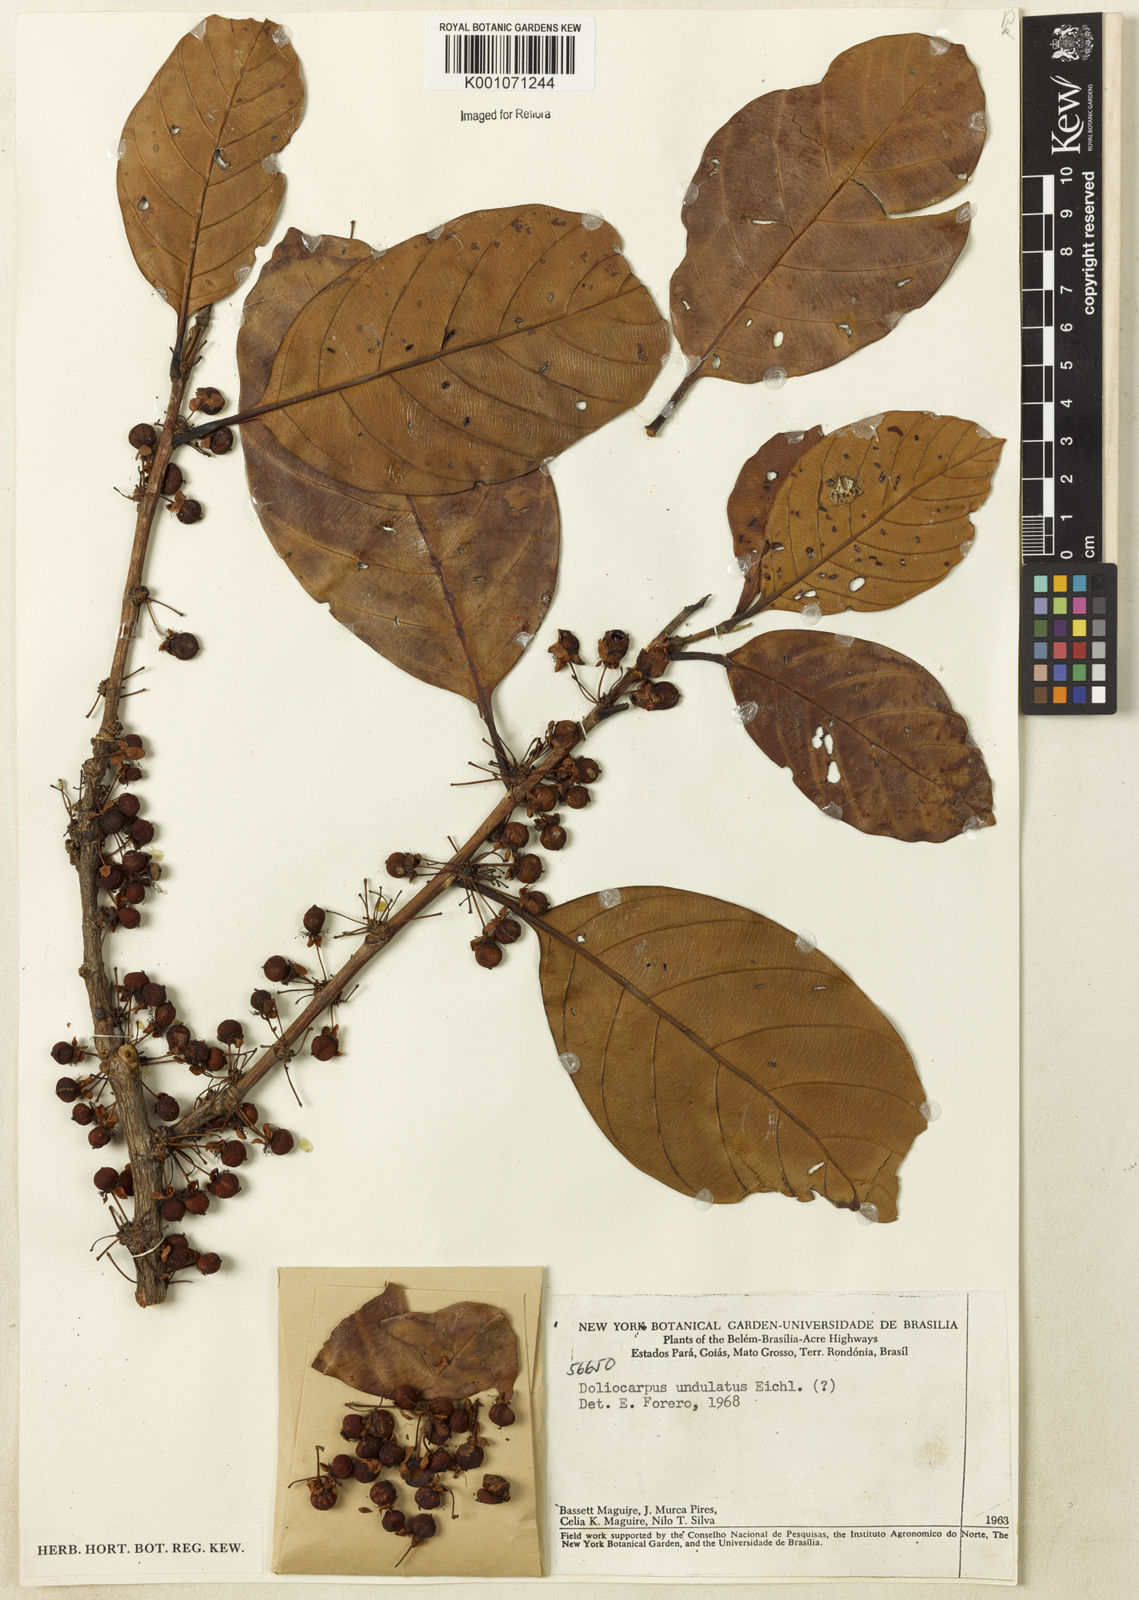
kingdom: Plantae
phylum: Tracheophyta
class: Magnoliopsida
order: Dilleniales
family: Dilleniaceae
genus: Doliocarpus
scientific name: Doliocarpus dentatus
